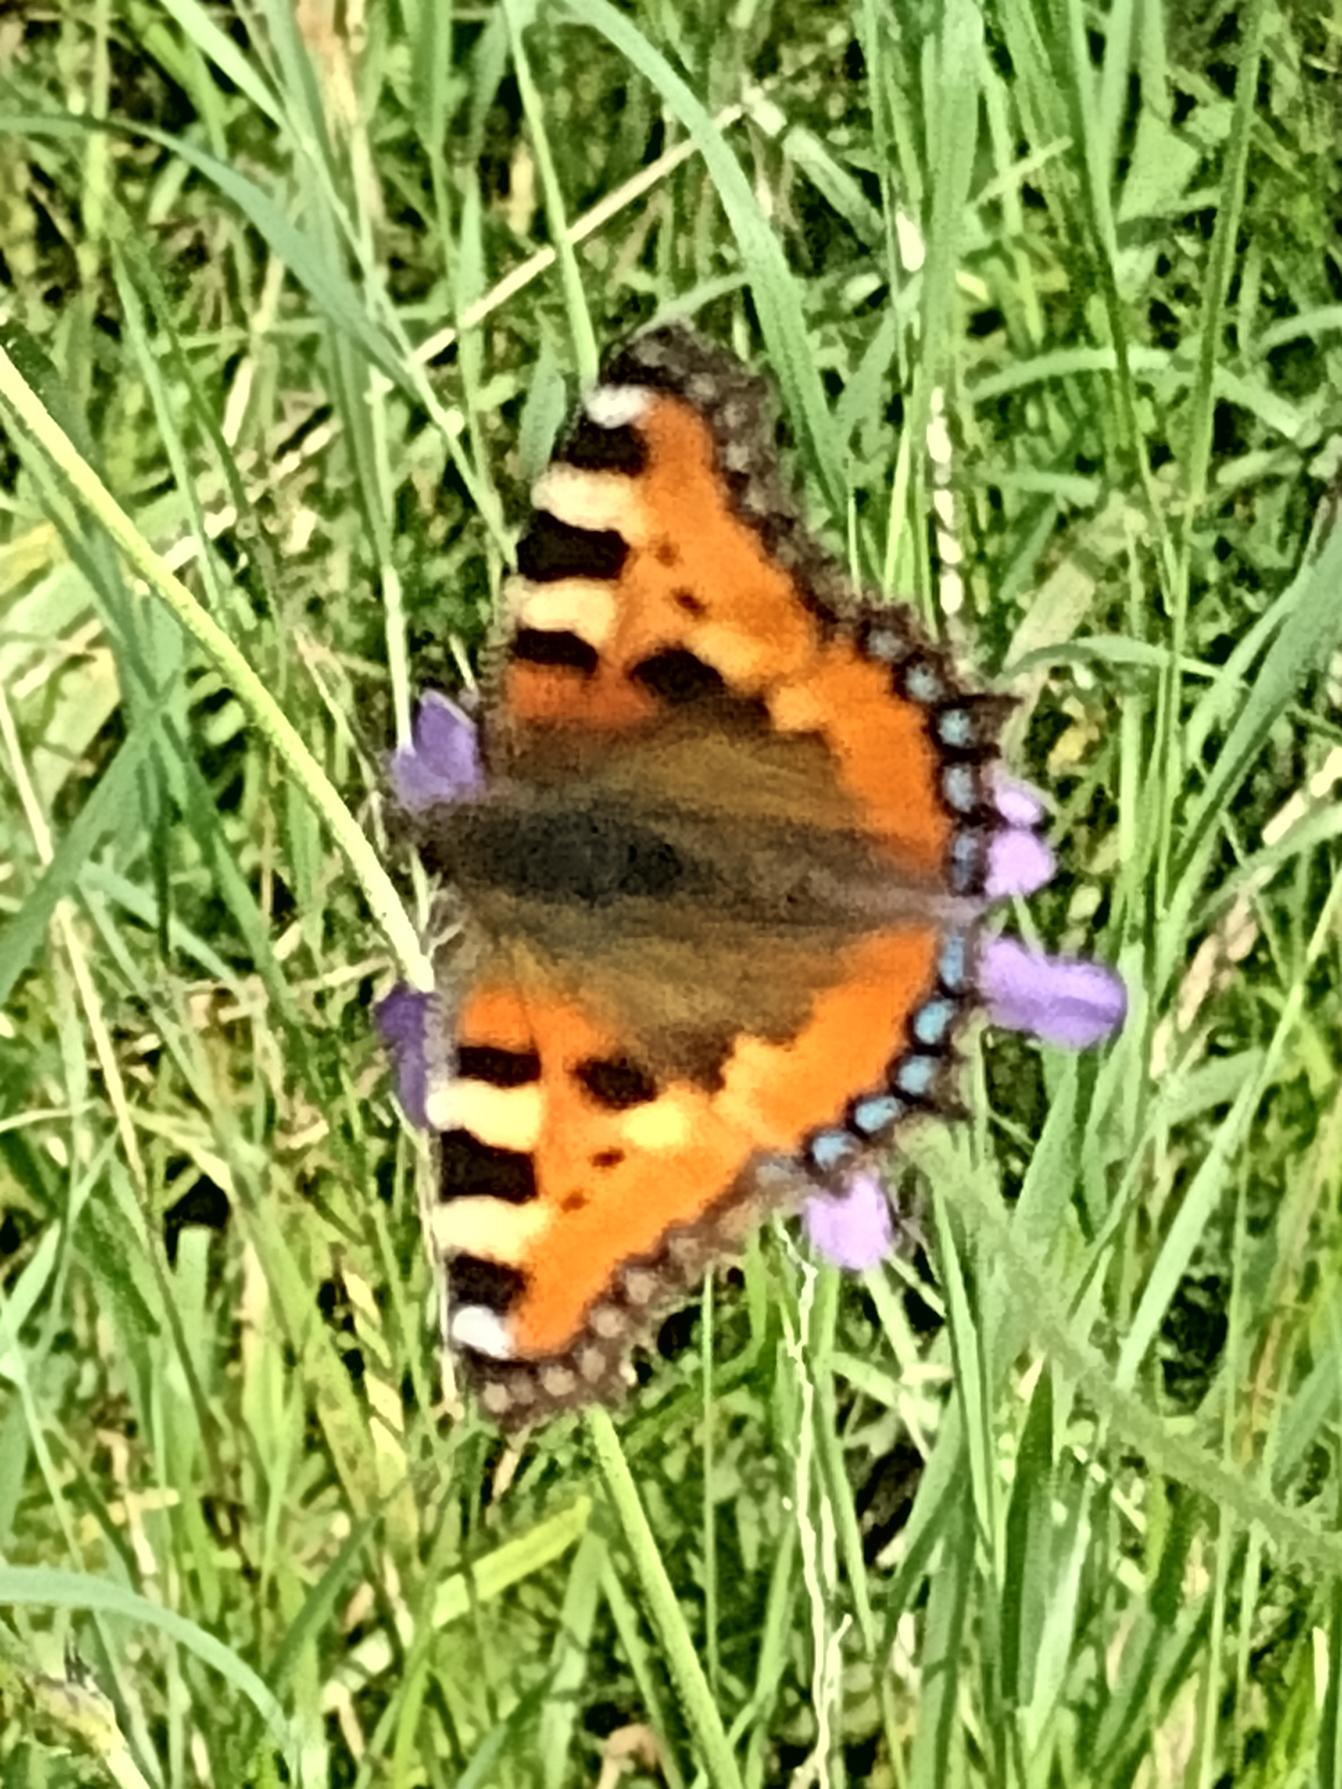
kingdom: Animalia
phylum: Arthropoda
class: Insecta
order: Lepidoptera
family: Nymphalidae
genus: Aglais
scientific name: Aglais urticae
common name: Nældens takvinge
